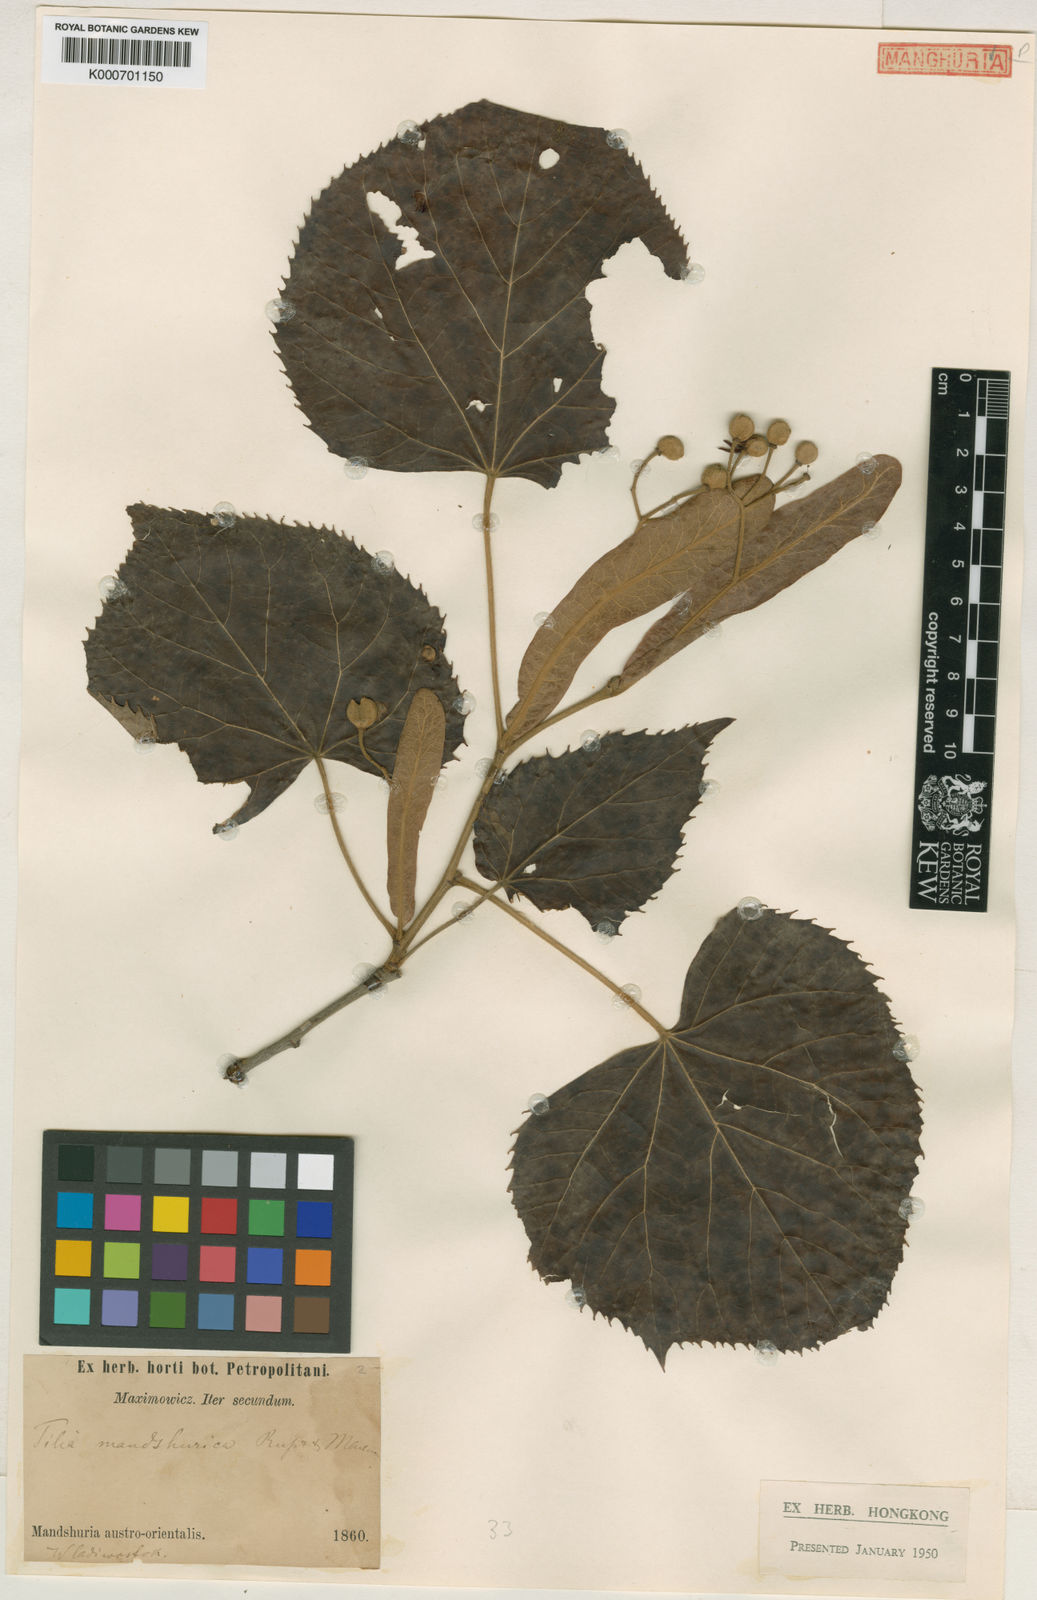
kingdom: Plantae
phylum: Tracheophyta
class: Magnoliopsida
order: Malvales
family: Malvaceae
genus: Tilia
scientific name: Tilia mandshurica
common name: Manchurian linden
